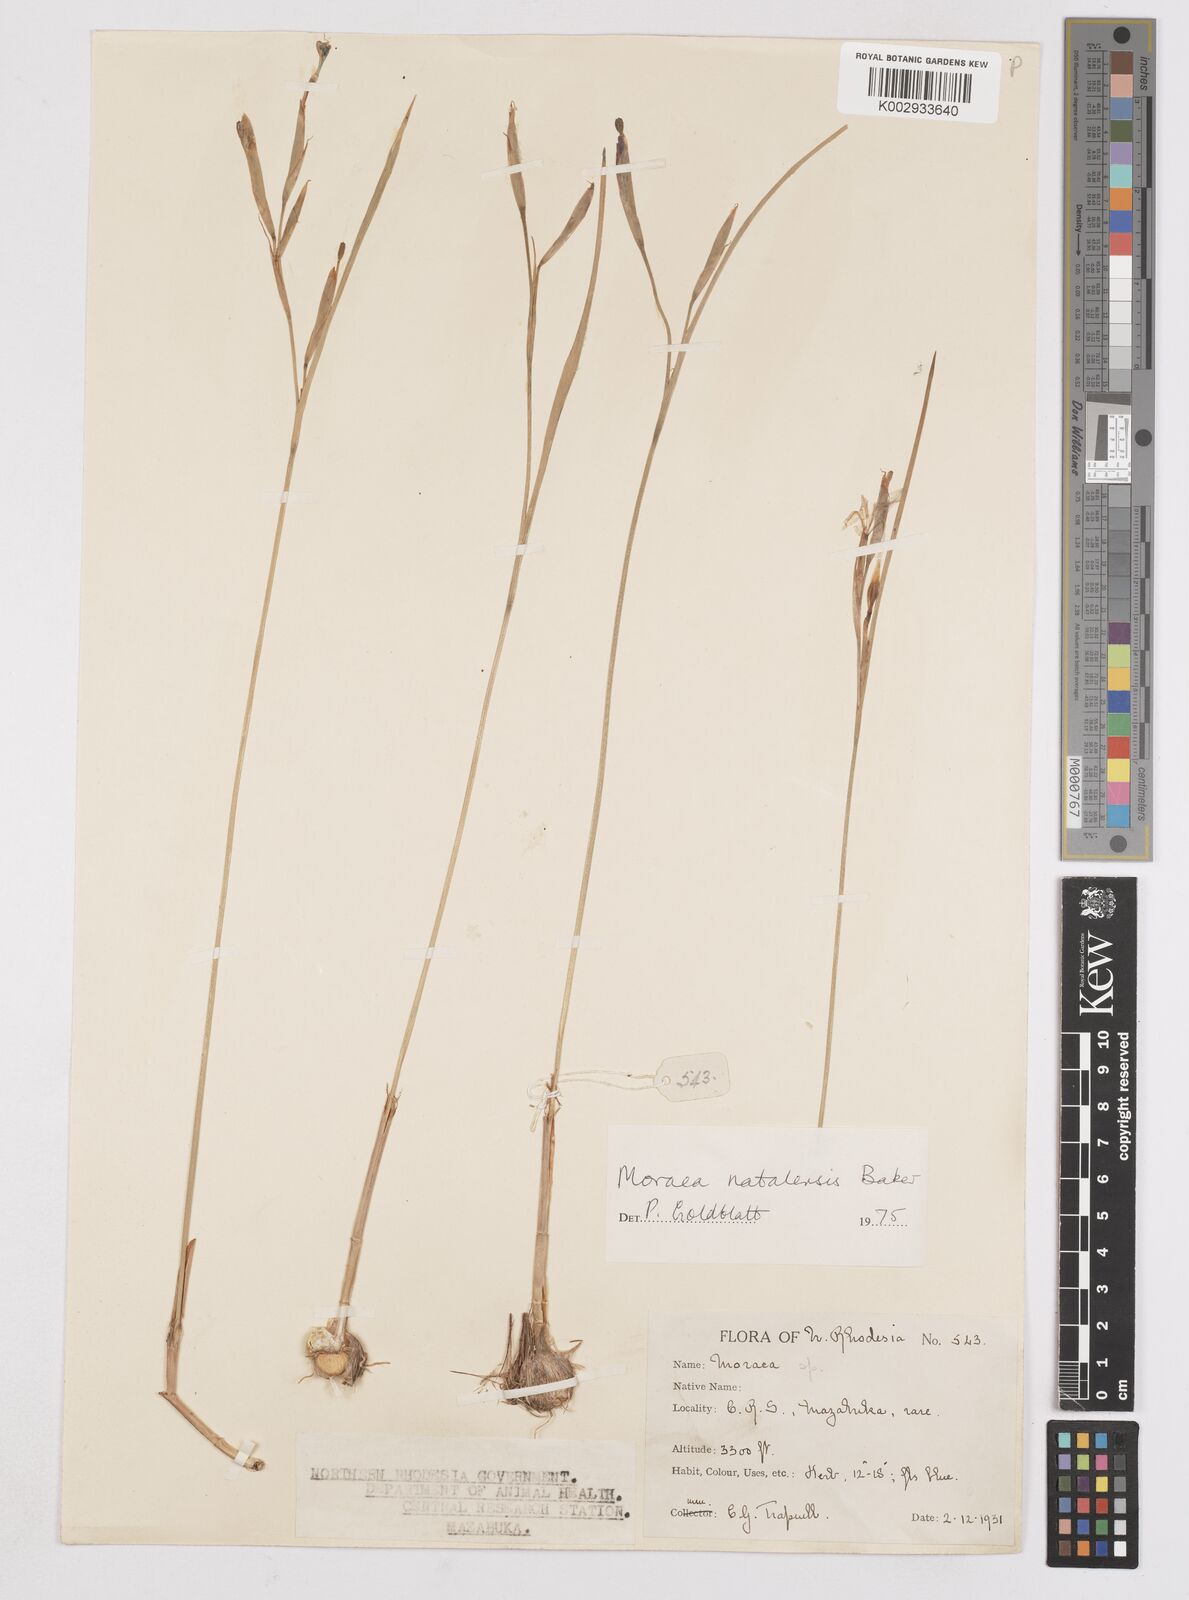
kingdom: Plantae
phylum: Tracheophyta
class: Liliopsida
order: Asparagales
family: Iridaceae
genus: Moraea
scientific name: Moraea natalensis
